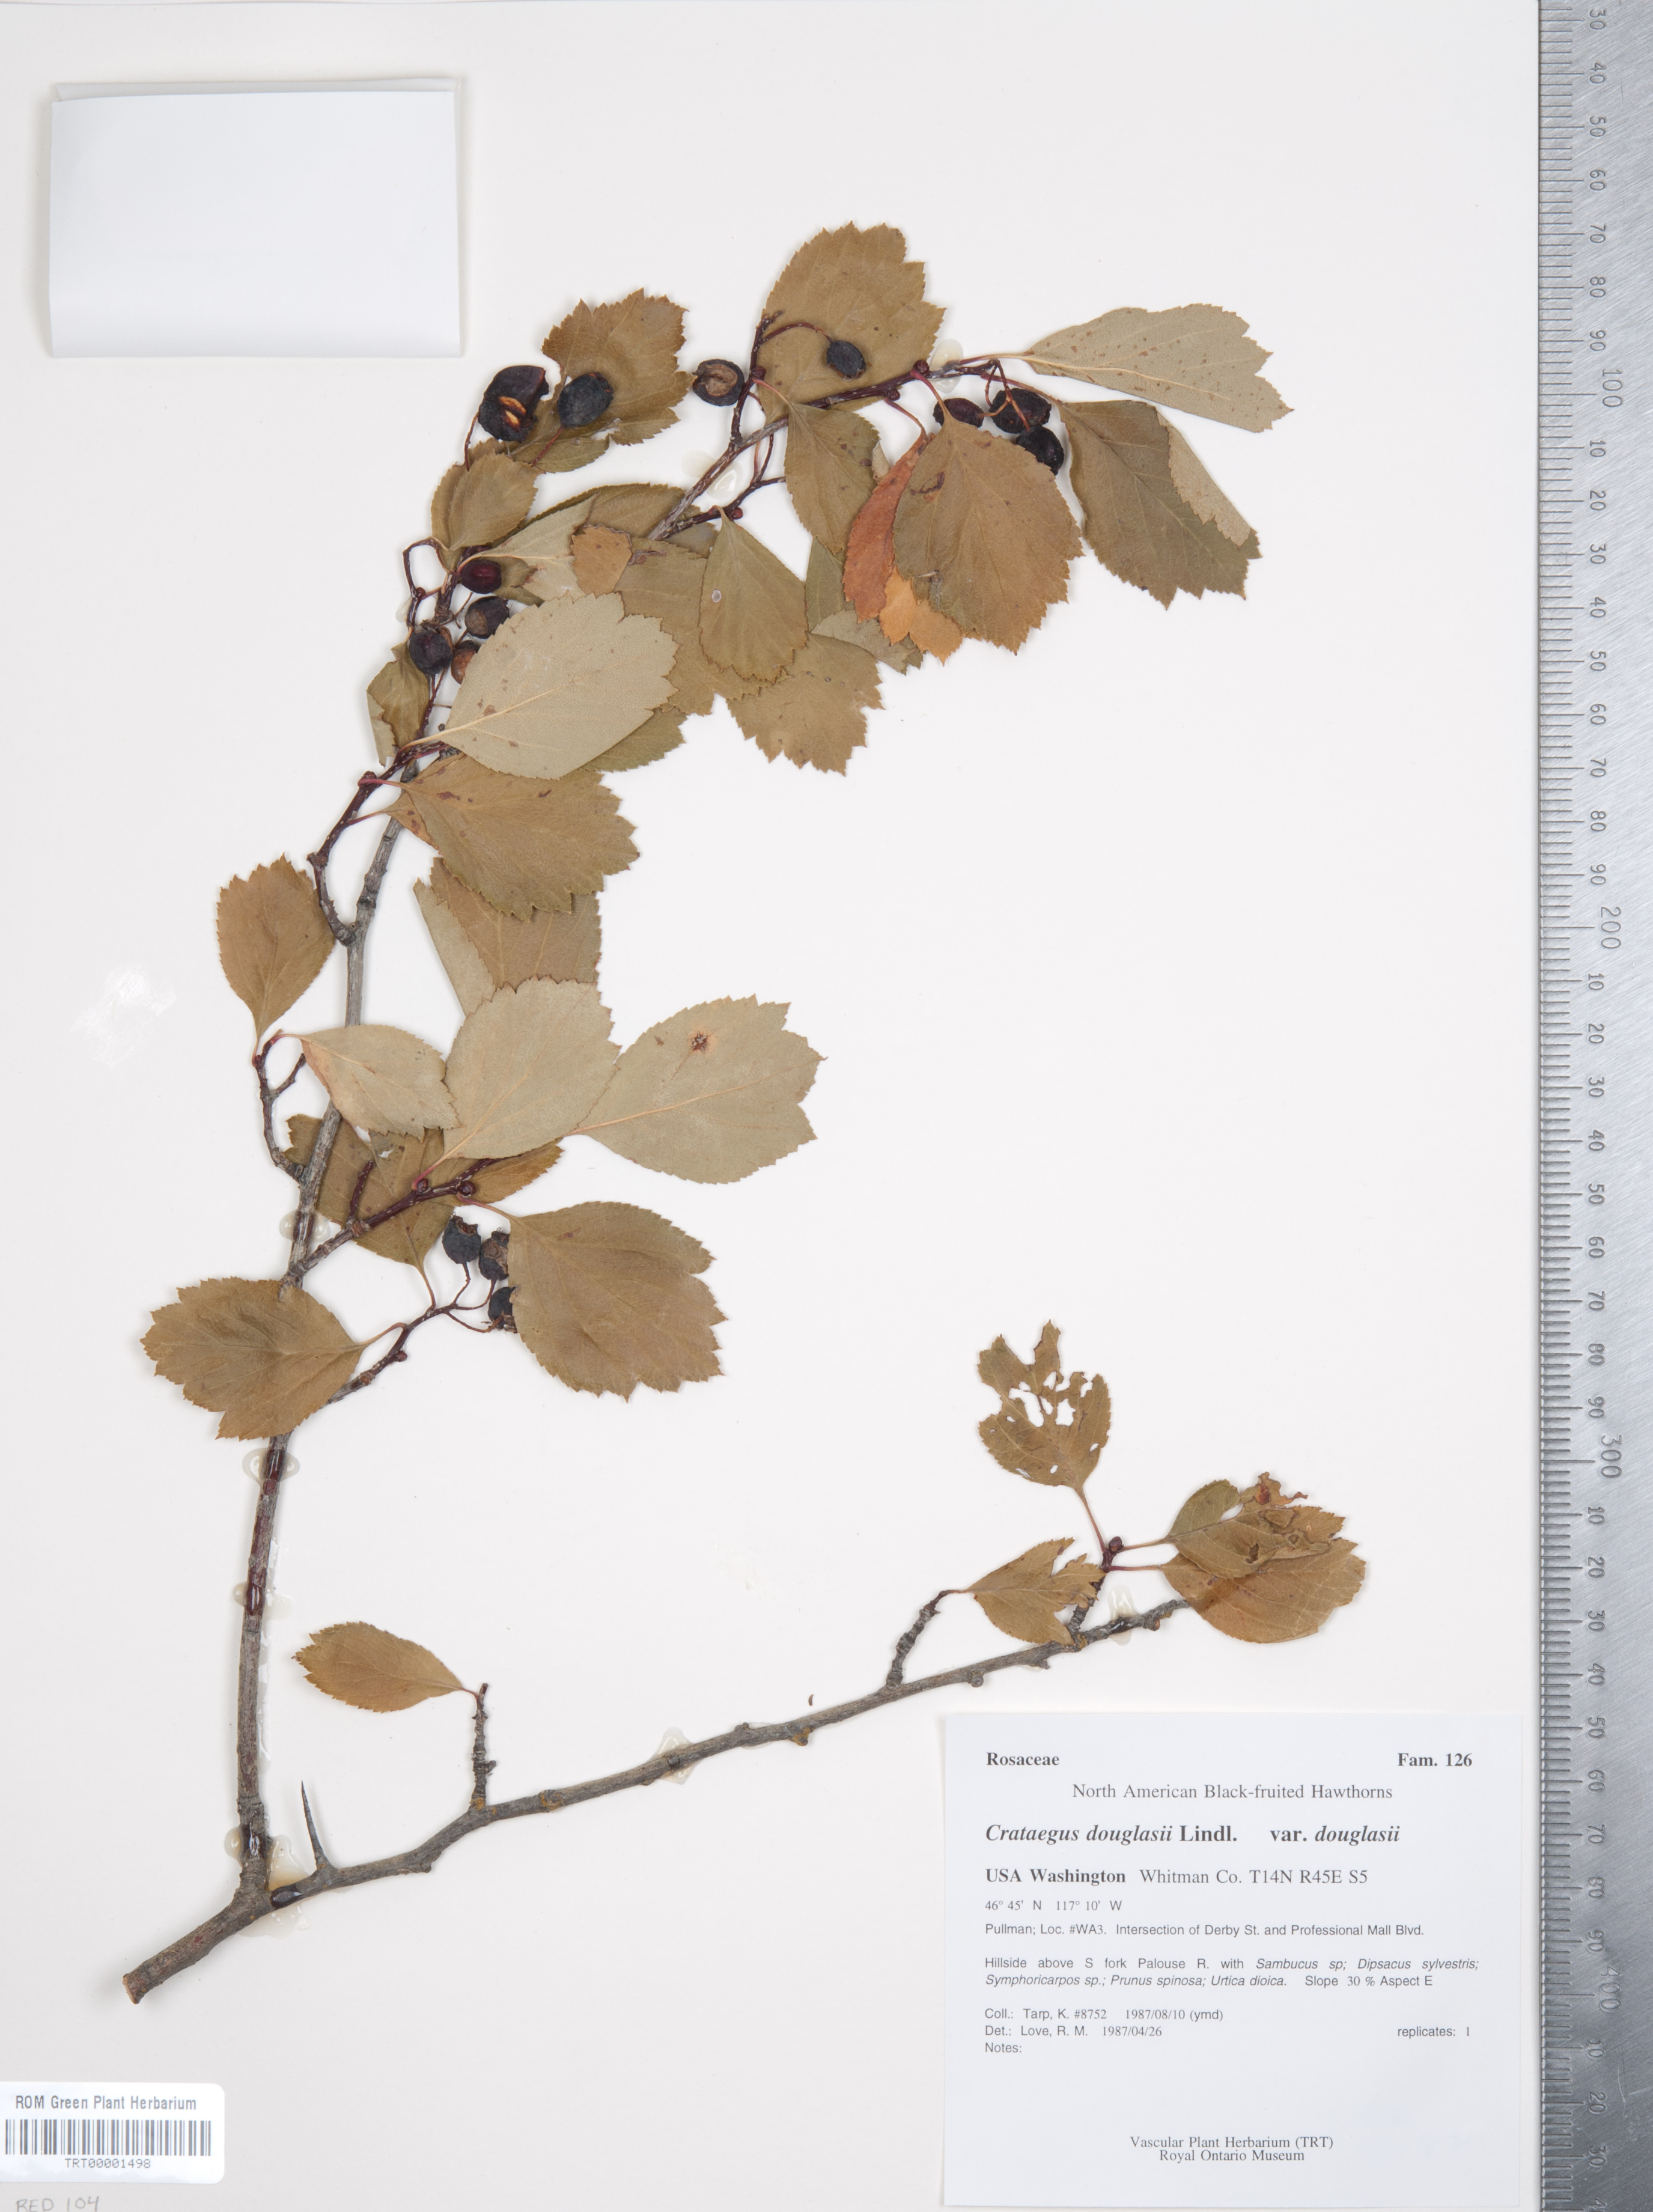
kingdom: Plantae
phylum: Tracheophyta
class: Magnoliopsida
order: Rosales
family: Rosaceae
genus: Crataegus
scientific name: Crataegus douglasii
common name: Black hawthorn
